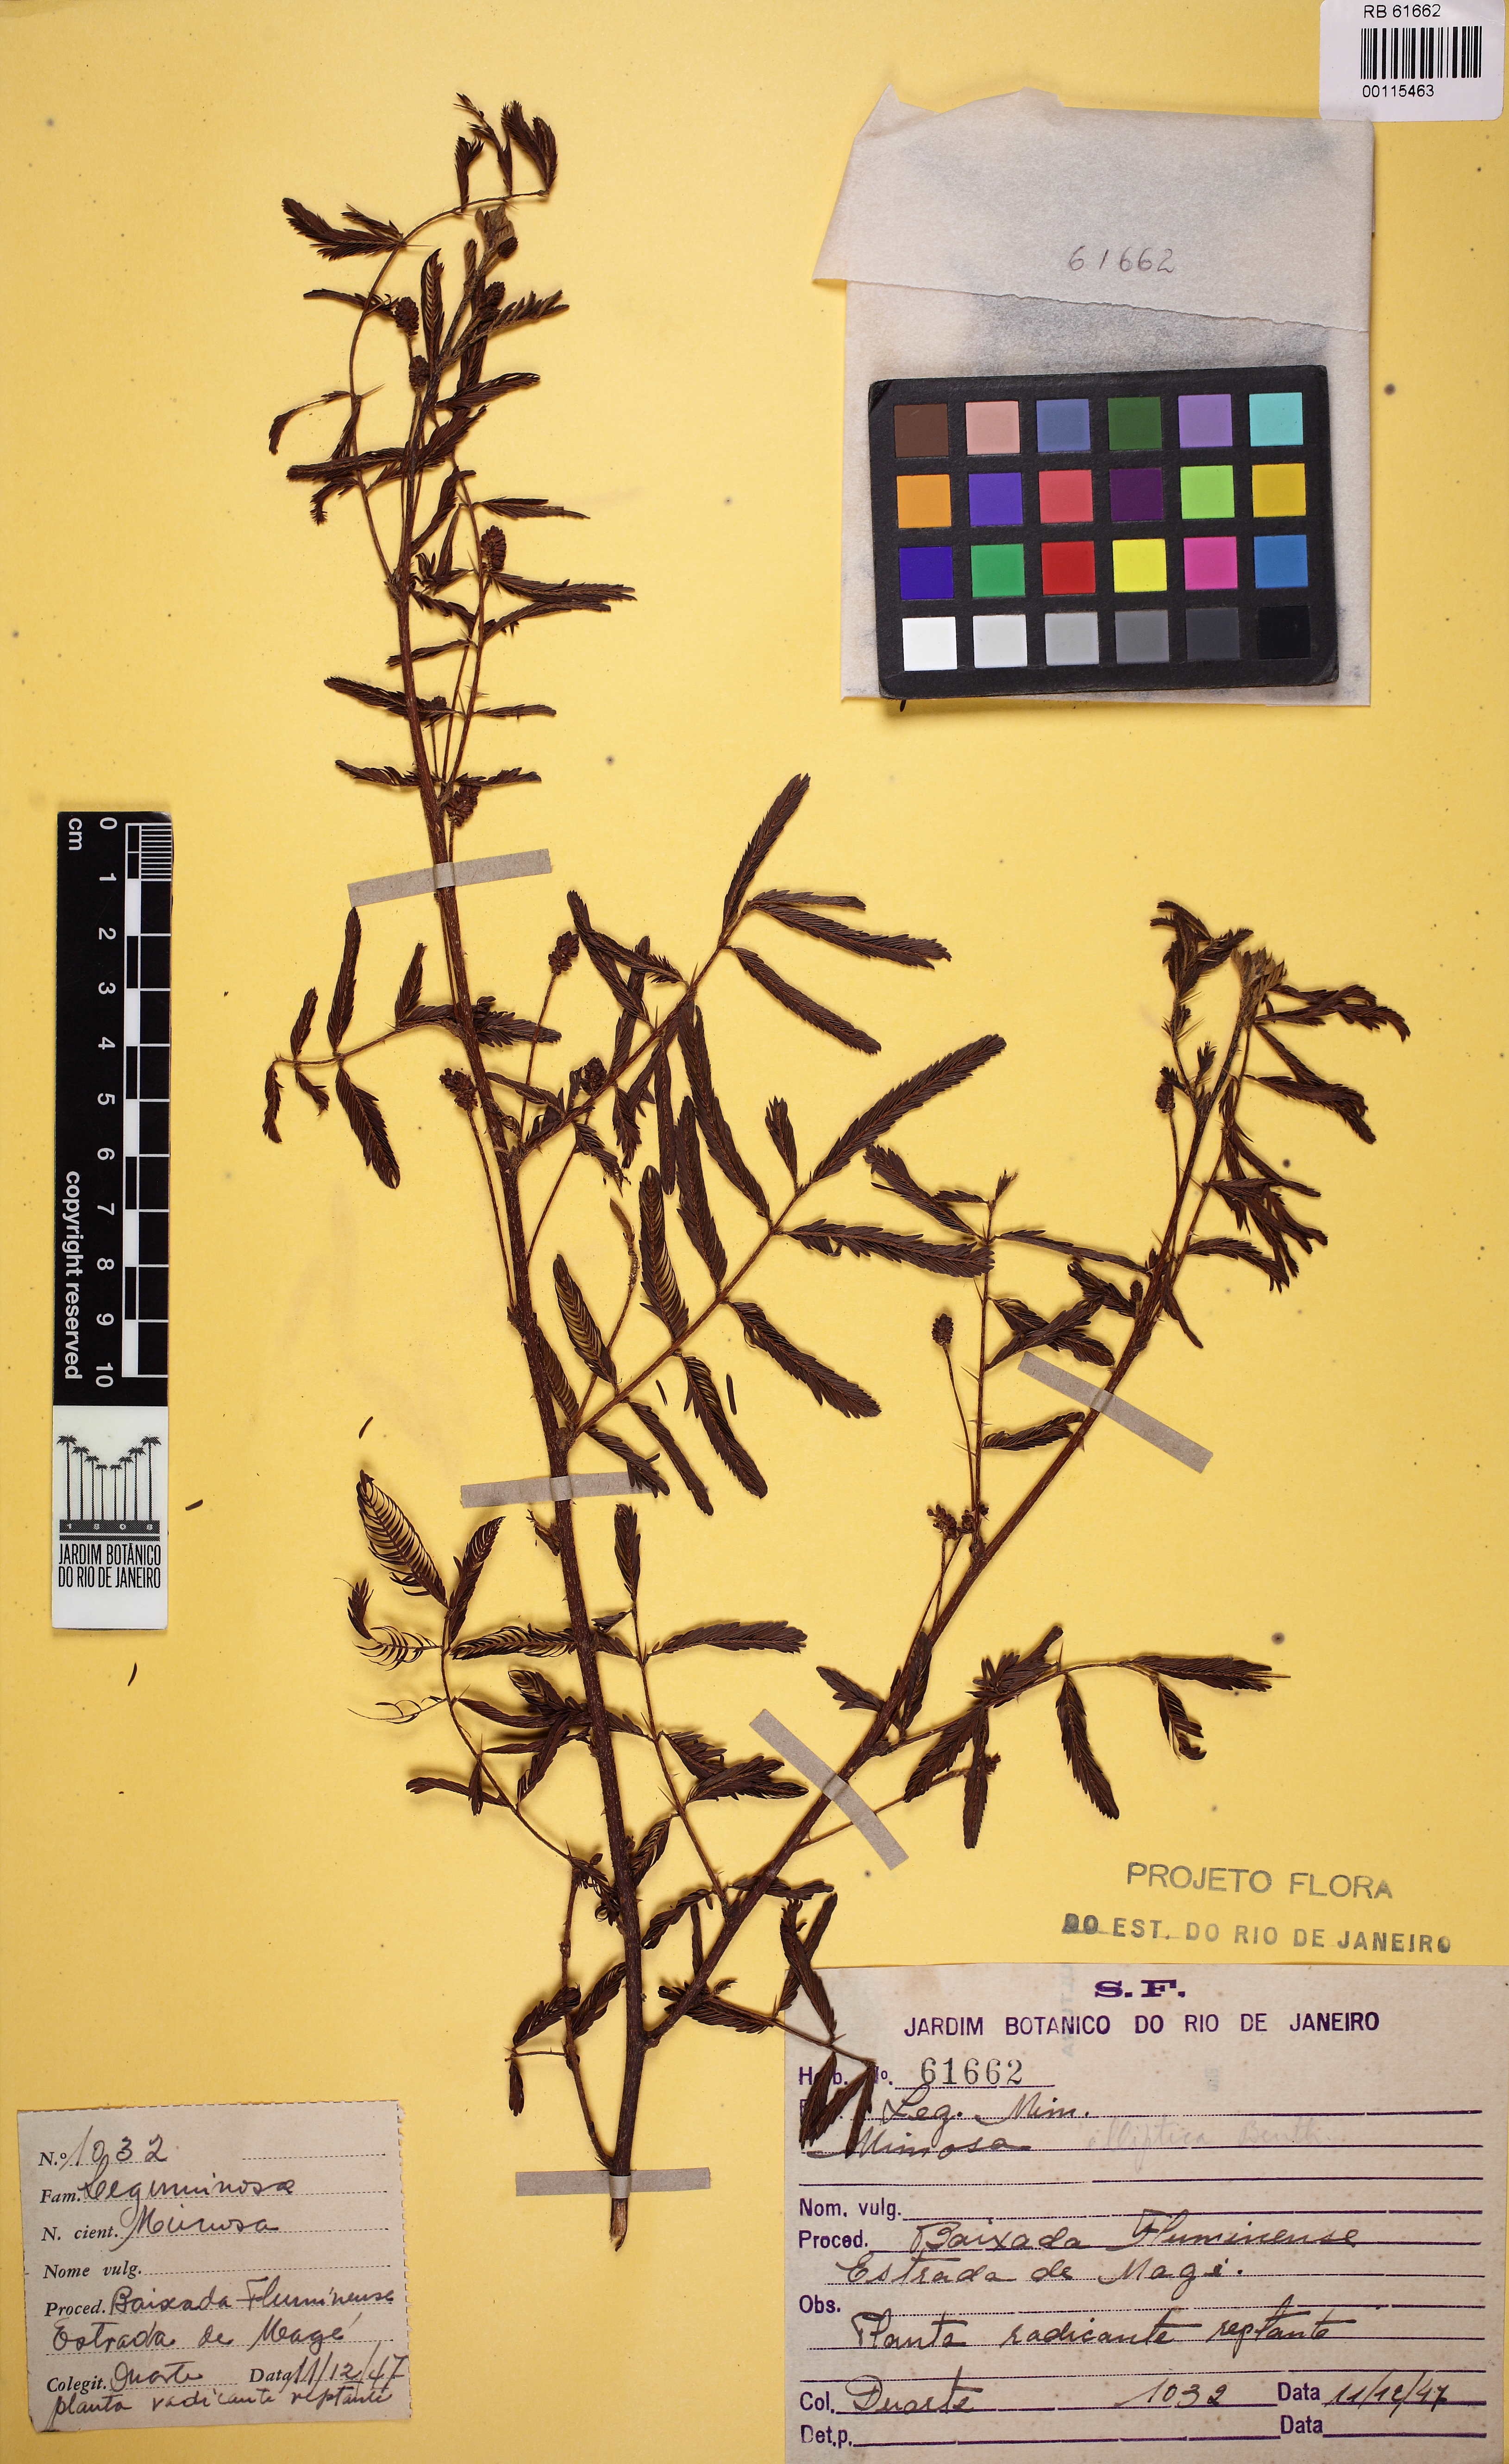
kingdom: Plantae
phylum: Tracheophyta
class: Magnoliopsida
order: Fabales
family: Fabaceae
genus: Mimosa
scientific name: Mimosa elliptica
